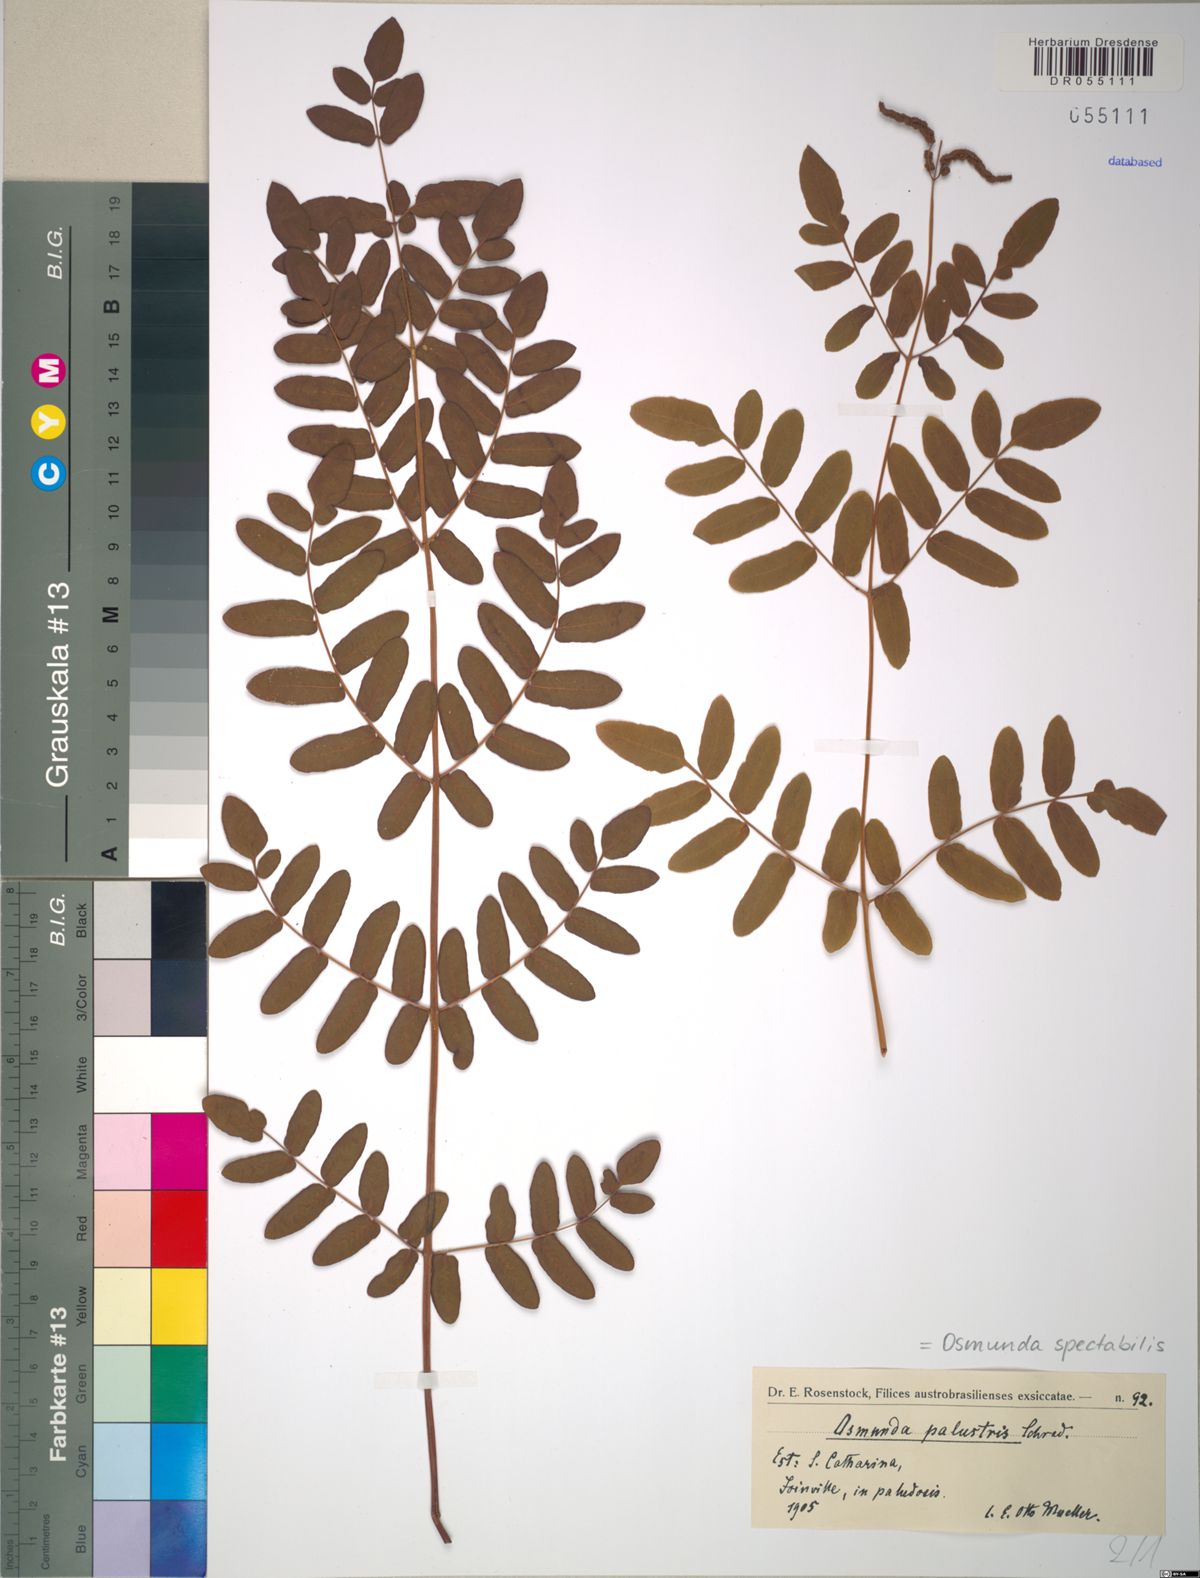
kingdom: Plantae
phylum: Tracheophyta
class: Polypodiopsida
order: Osmundales
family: Osmundaceae
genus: Osmunda
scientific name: Osmunda spectabilis
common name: American royal fern
